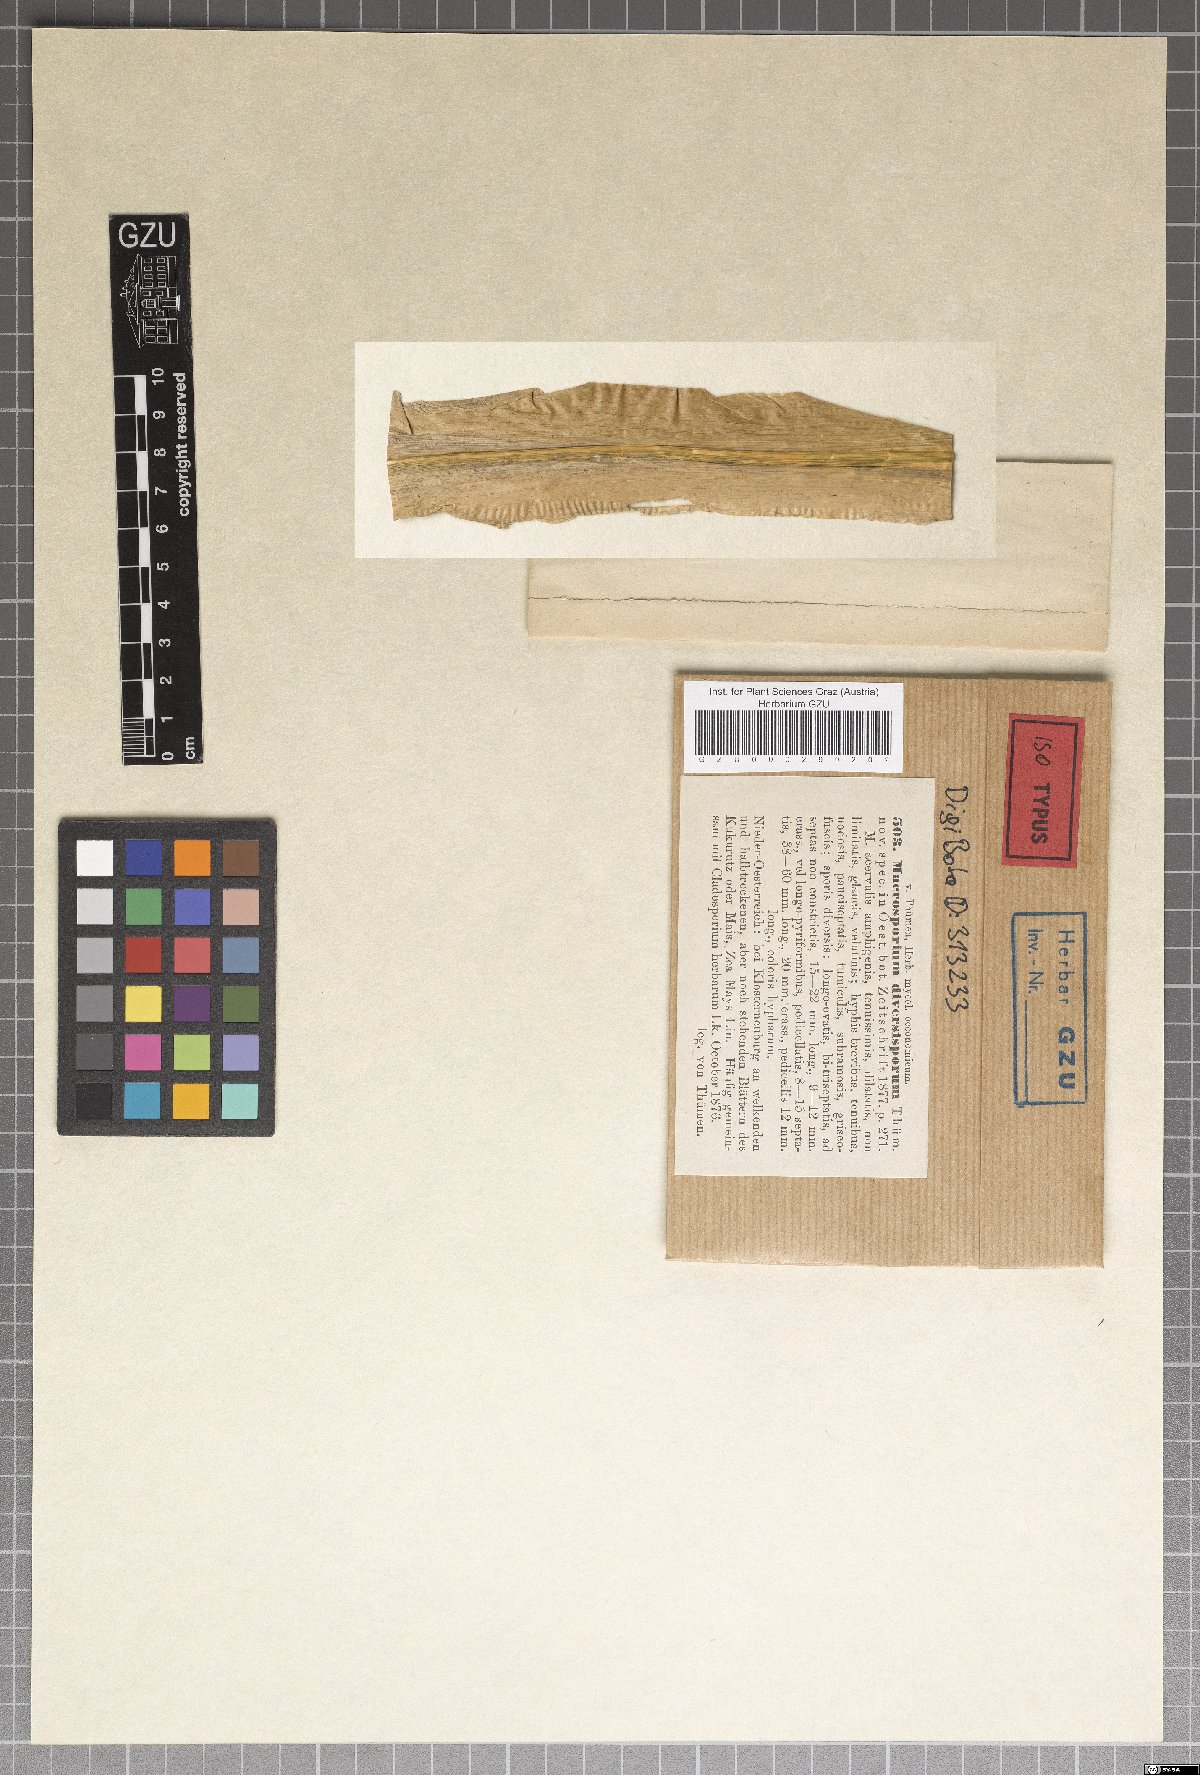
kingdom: Fungi
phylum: Ascomycota
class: Dothideomycetes
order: Pleosporales
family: Pleosporaceae
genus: Alternaria
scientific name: Alternaria diversispora
